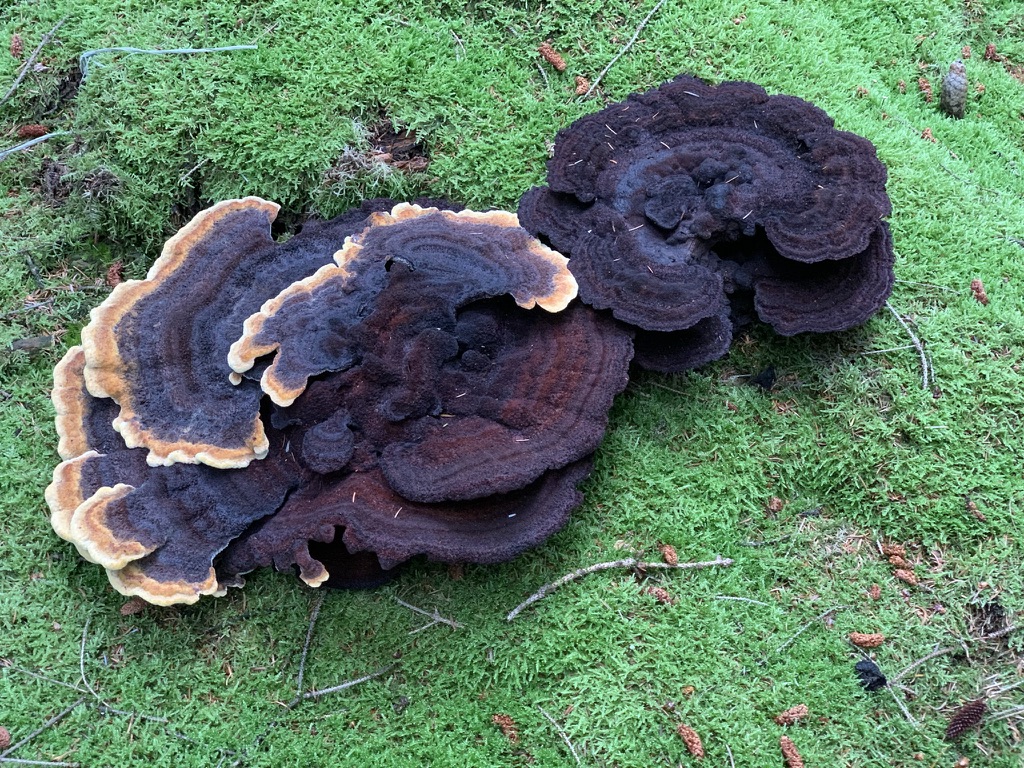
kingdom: Fungi
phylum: Basidiomycota
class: Agaricomycetes
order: Polyporales
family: Laetiporaceae
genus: Phaeolus
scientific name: Phaeolus schweinitzii
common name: brunporesvamp
